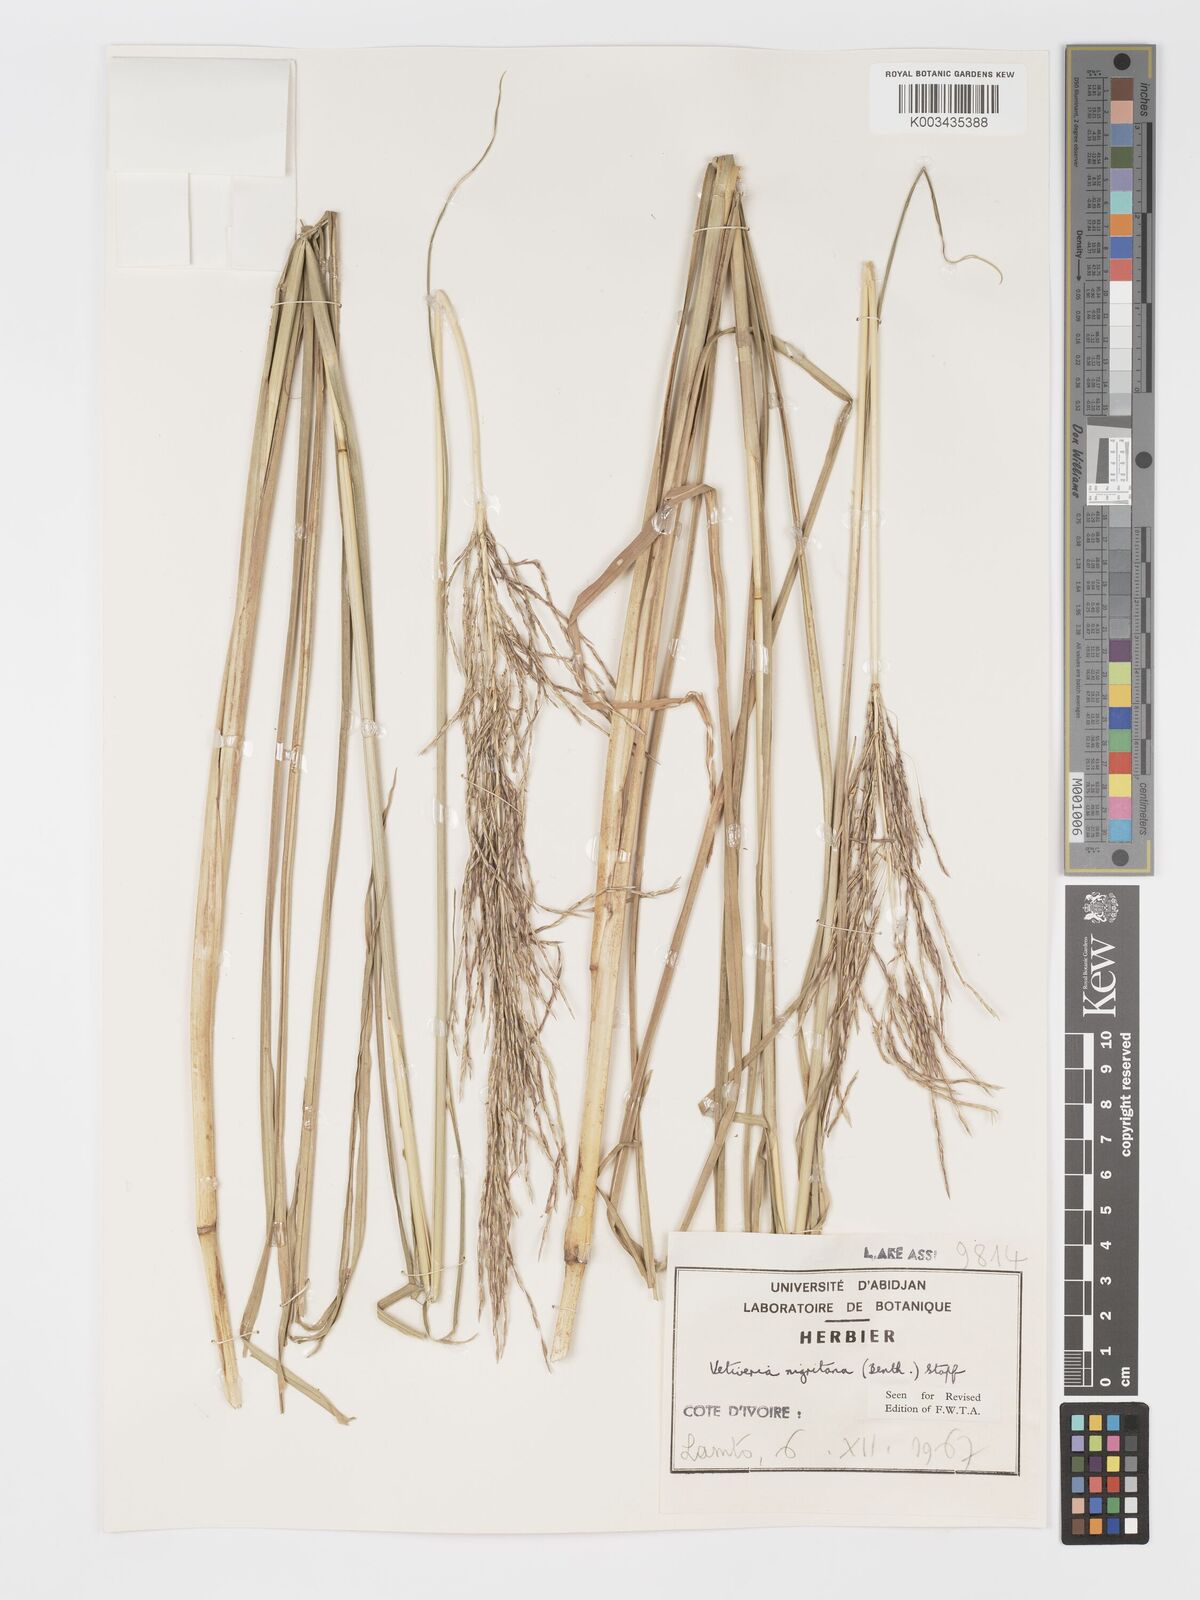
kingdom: Plantae
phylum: Tracheophyta
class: Liliopsida
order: Poales
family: Poaceae
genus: Chrysopogon
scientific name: Chrysopogon nigritanus
